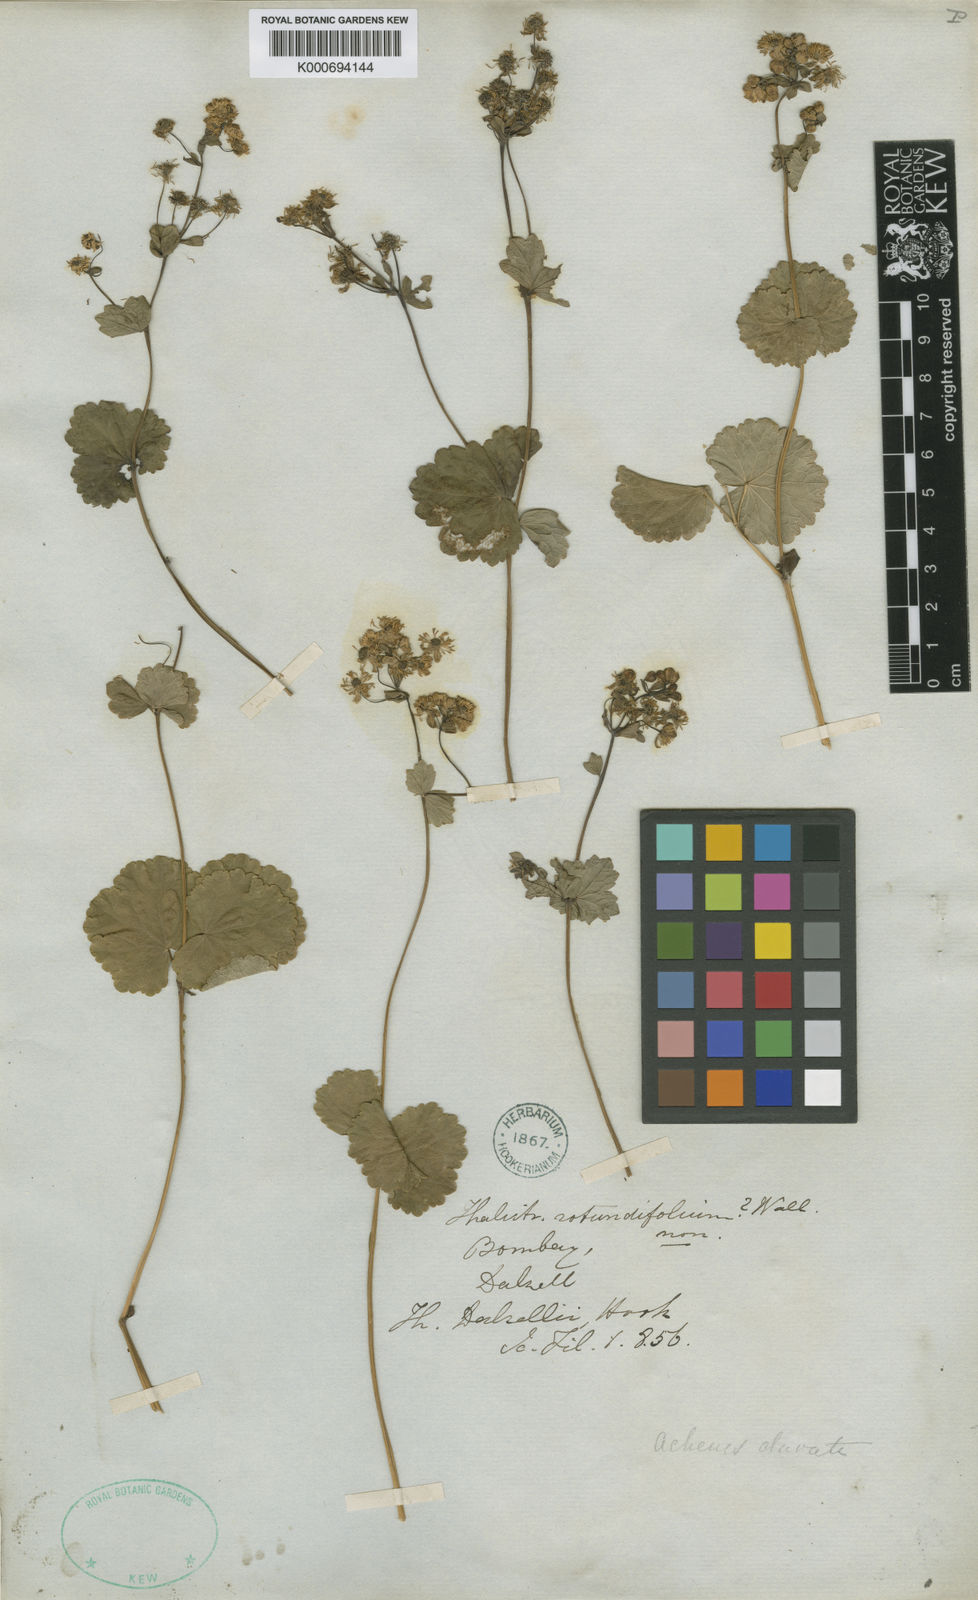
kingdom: Plantae
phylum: Tracheophyta
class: Magnoliopsida
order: Ranunculales
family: Ranunculaceae
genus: Thalictrum
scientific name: Thalictrum dalzellii
